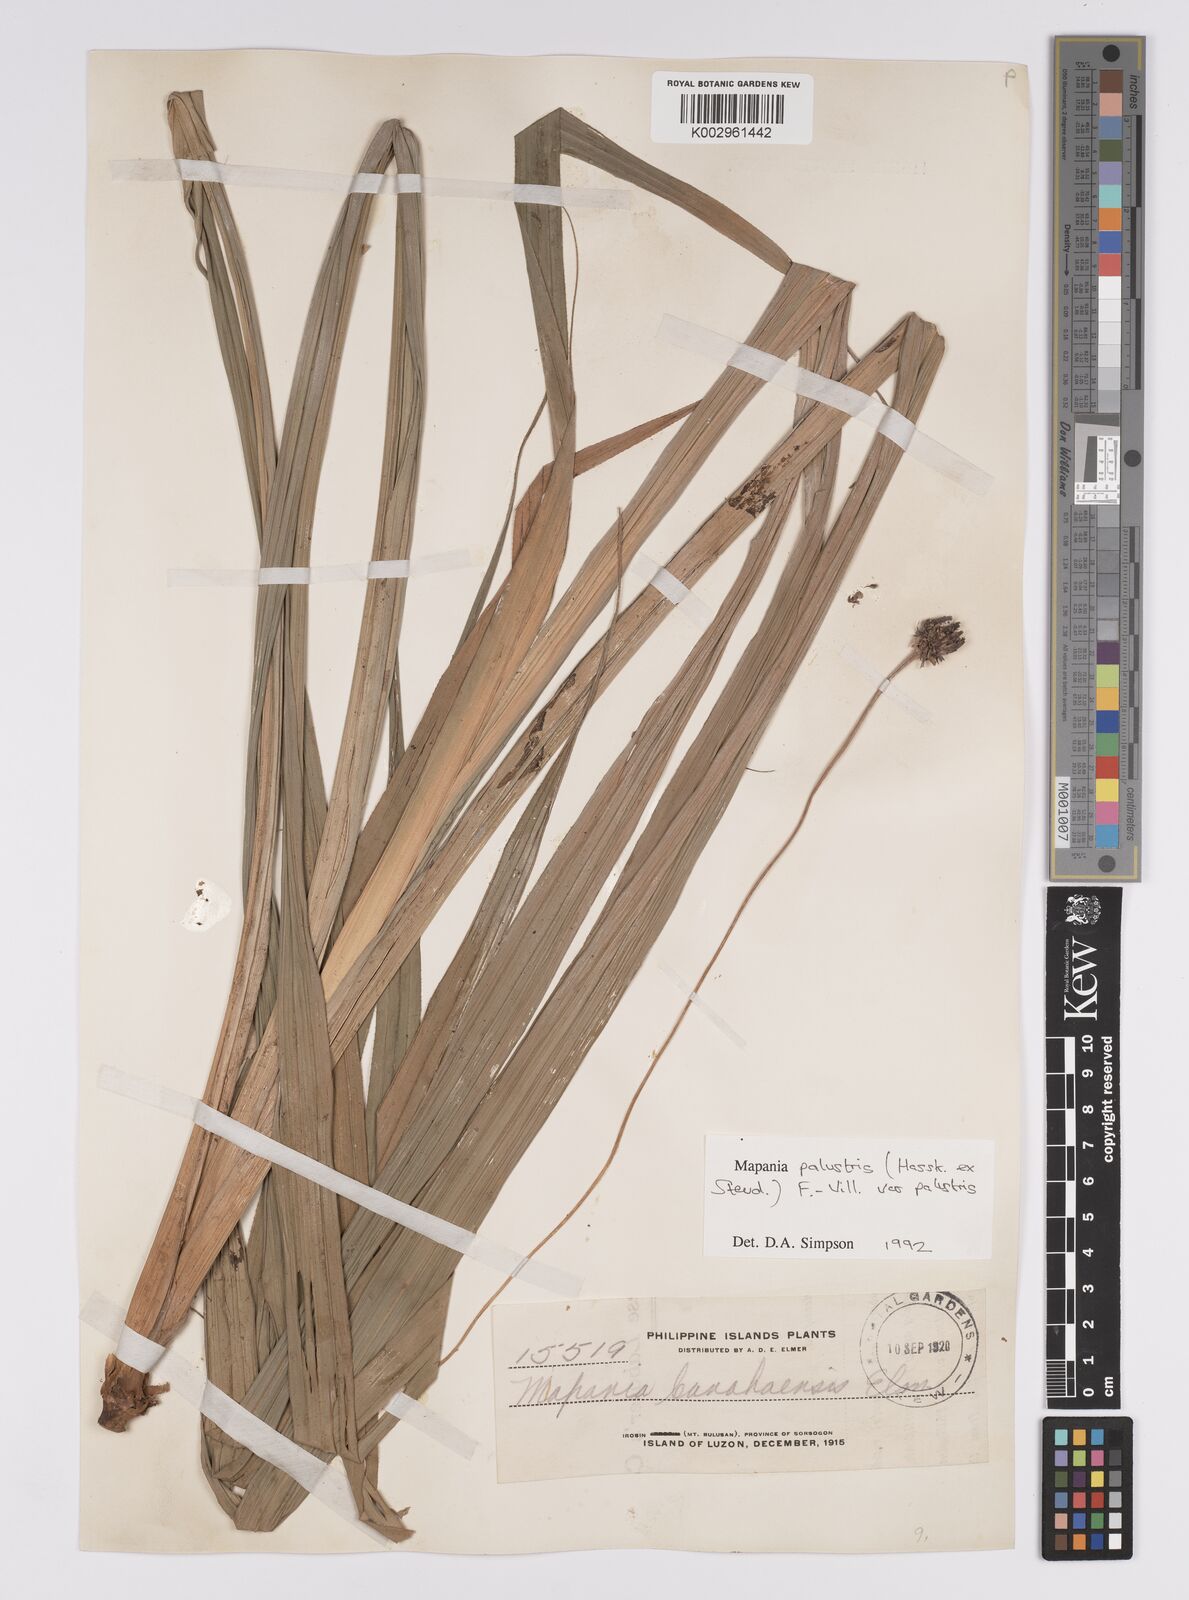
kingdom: Plantae
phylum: Tracheophyta
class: Liliopsida
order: Poales
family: Cyperaceae
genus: Mapania
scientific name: Mapania palustris
